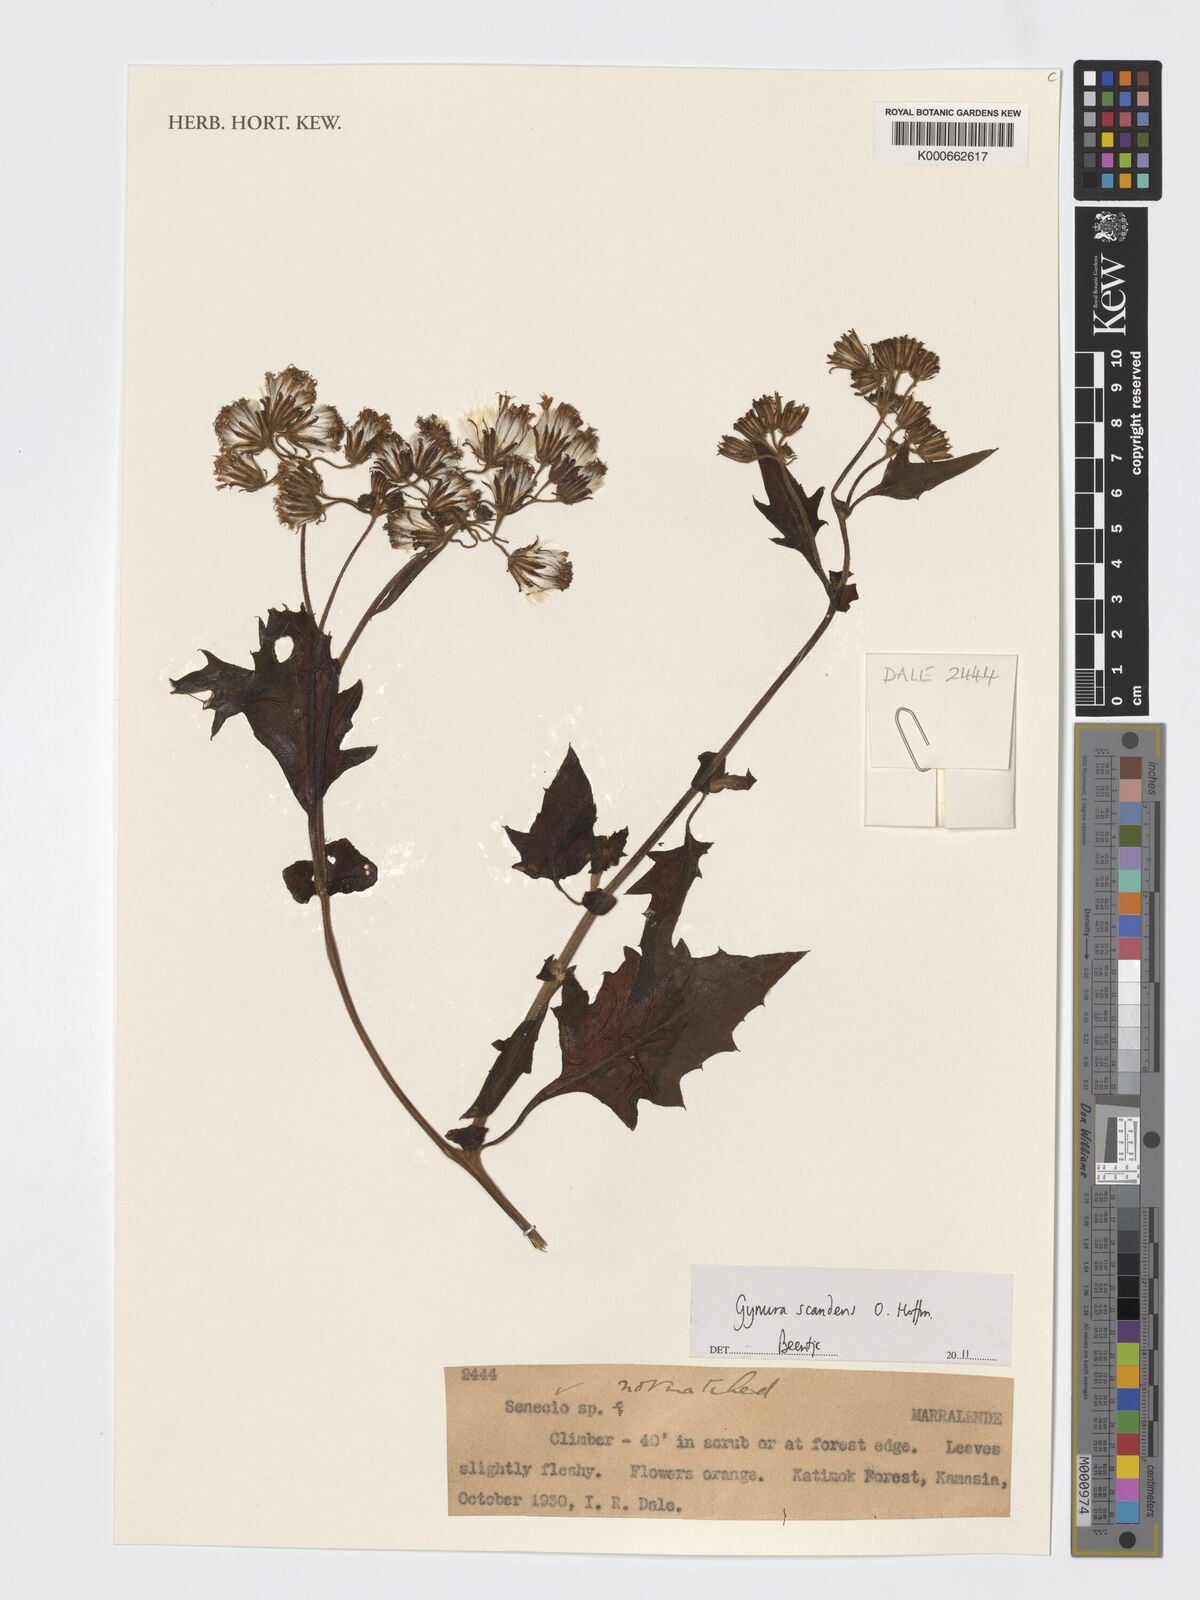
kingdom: Plantae
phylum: Tracheophyta
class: Magnoliopsida
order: Asterales
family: Asteraceae
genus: Gynura
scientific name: Gynura scandens
